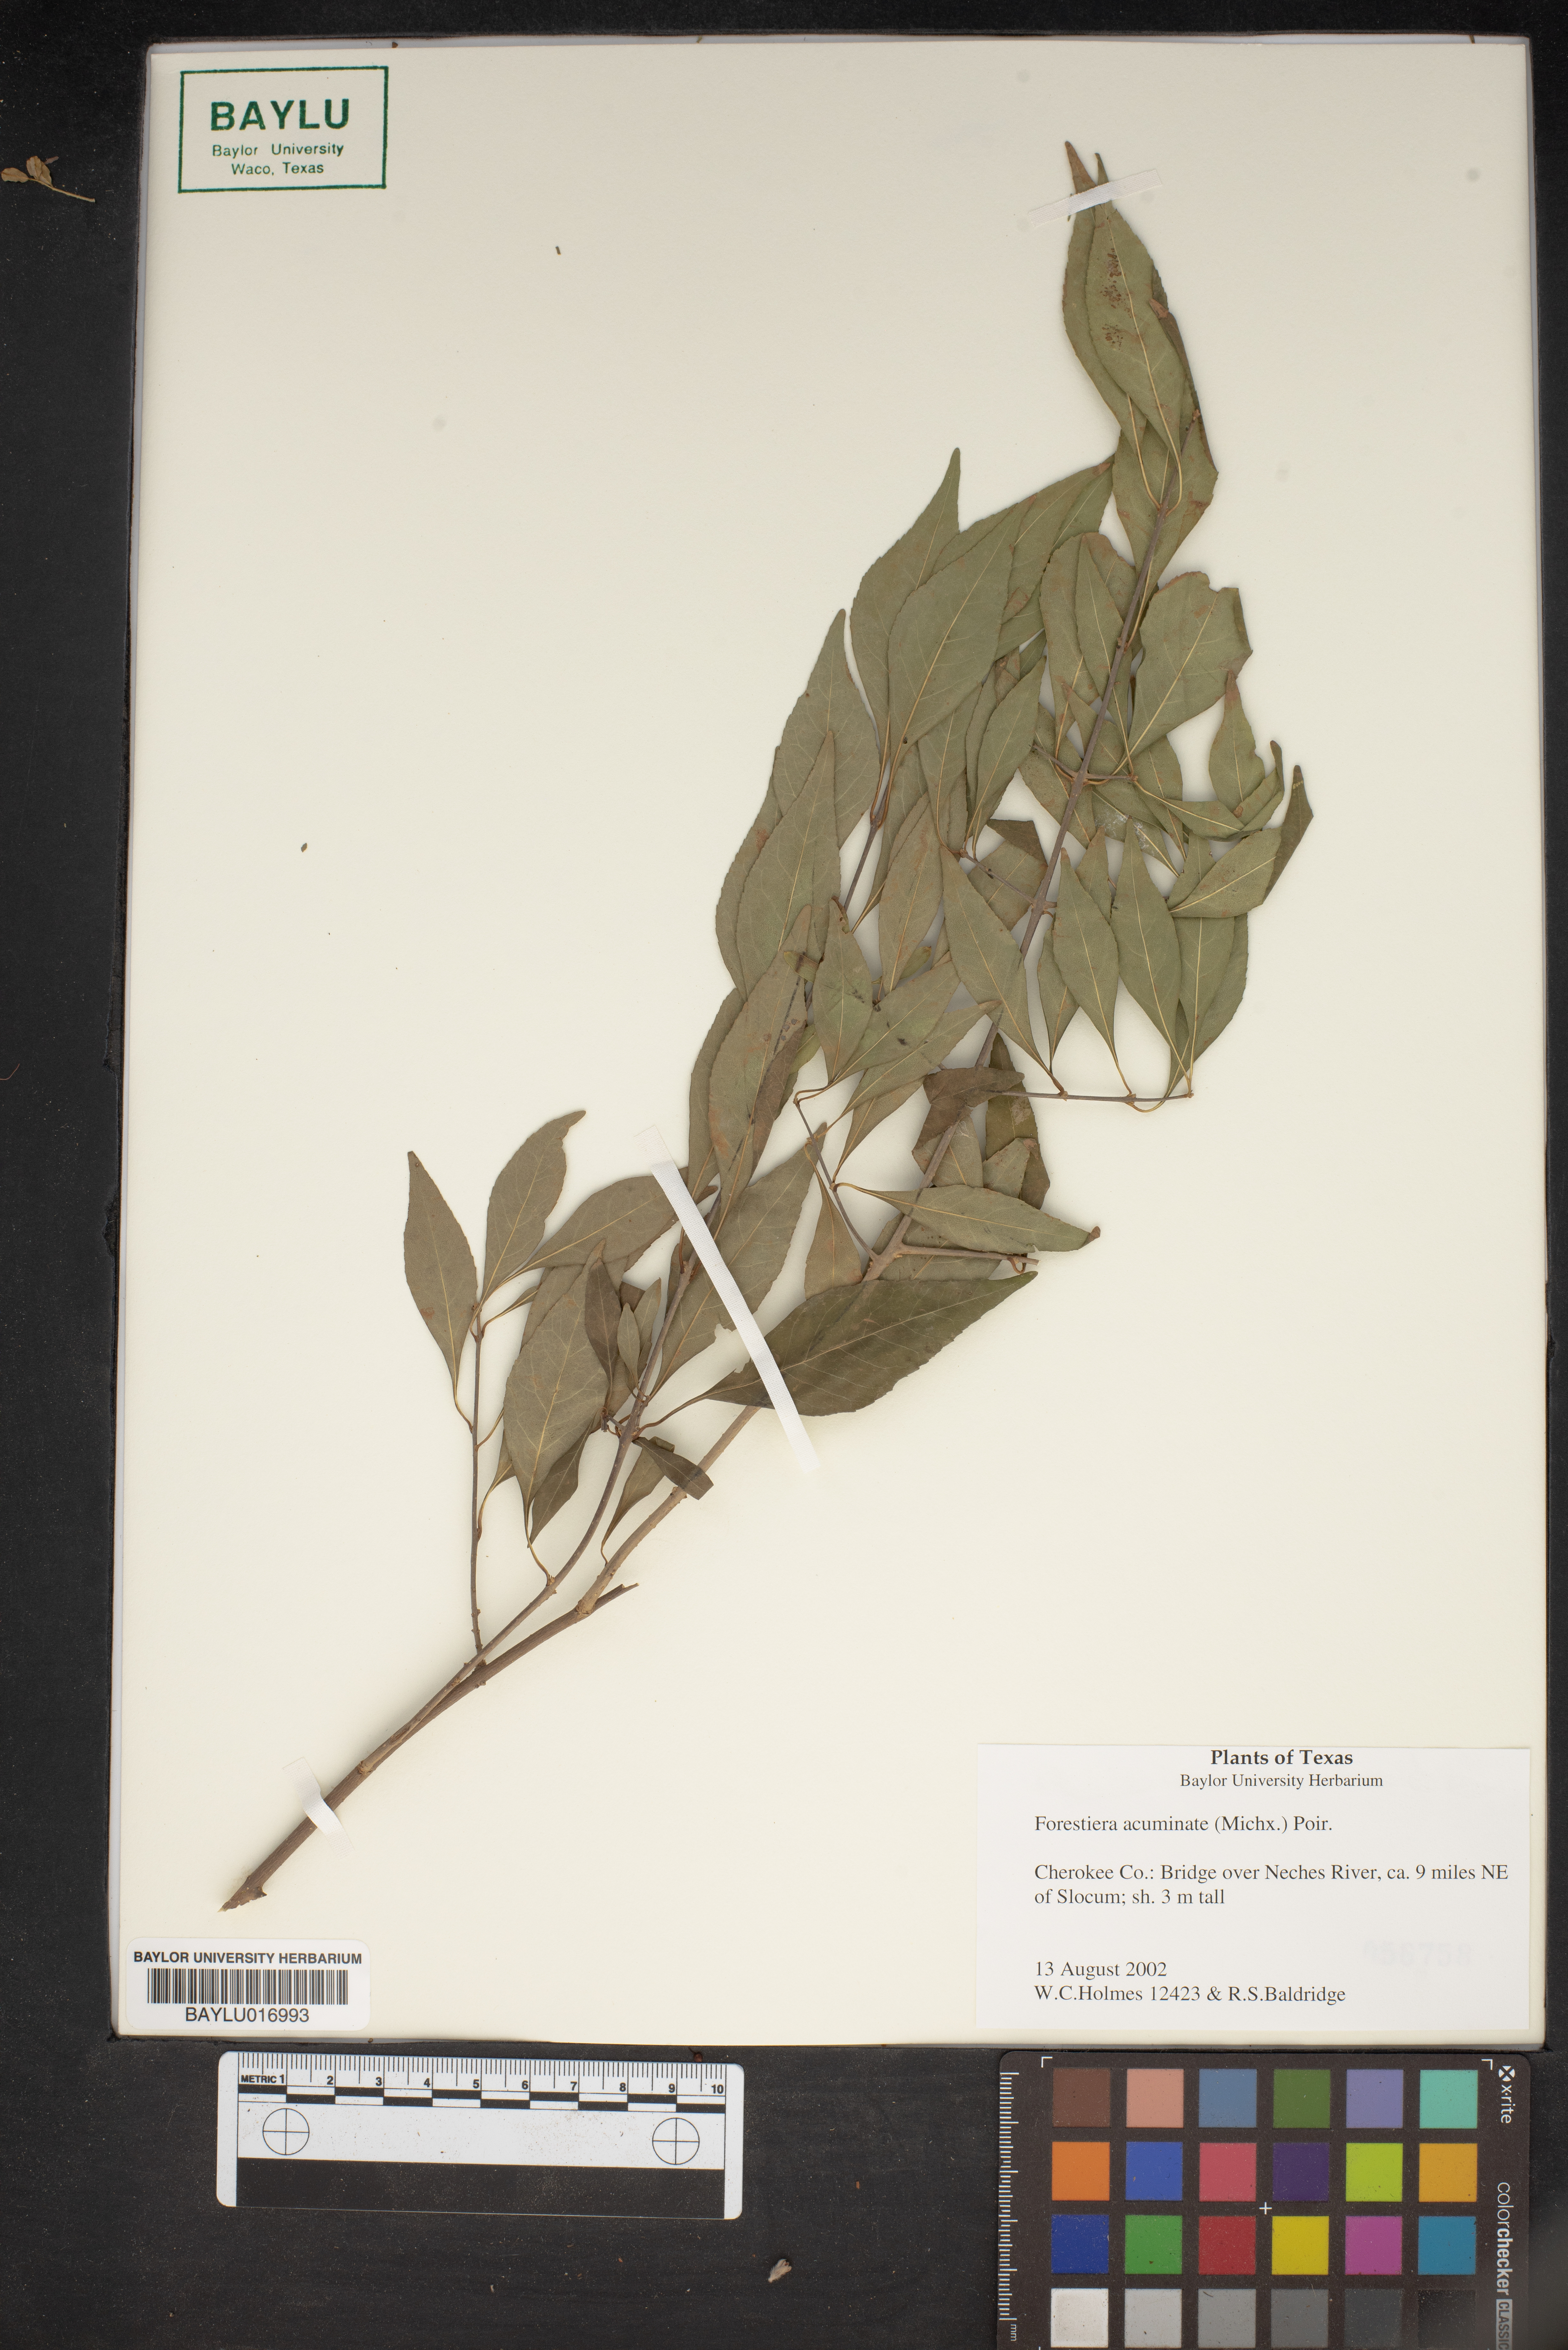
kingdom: Plantae
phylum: Tracheophyta
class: Magnoliopsida
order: Lamiales
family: Oleaceae
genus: Forestiera
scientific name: Forestiera acuminata
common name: Swamp-privet
